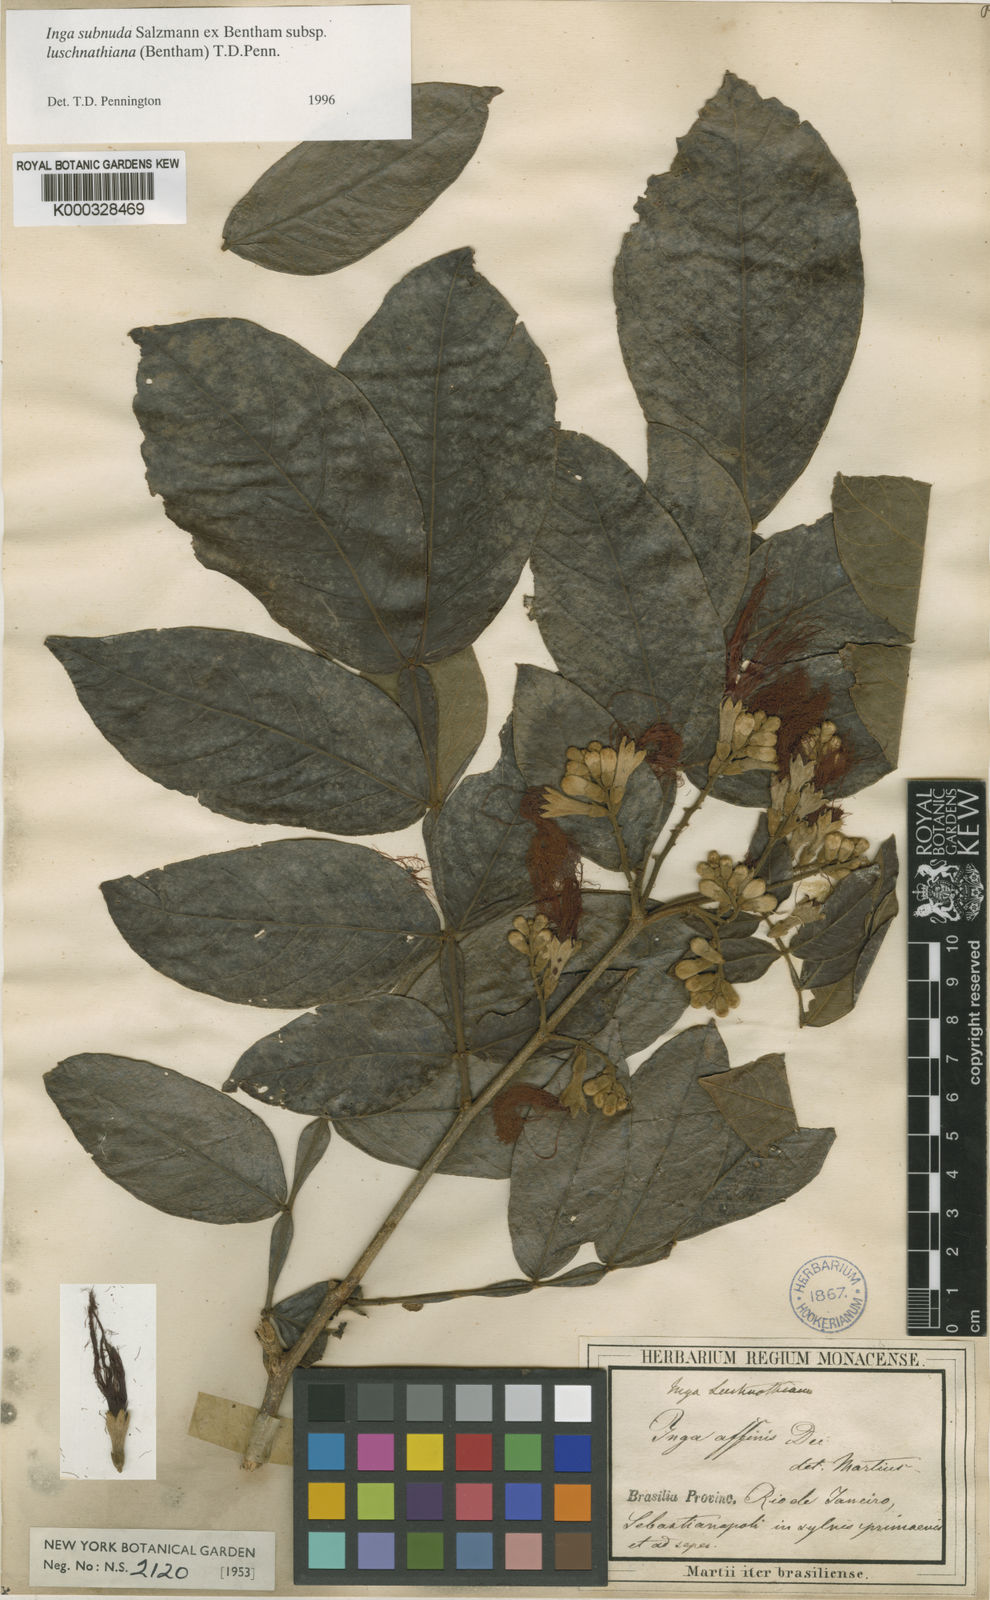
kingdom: Plantae
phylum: Tracheophyta
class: Magnoliopsida
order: Fabales
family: Fabaceae
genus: Inga
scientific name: Inga subnuda
